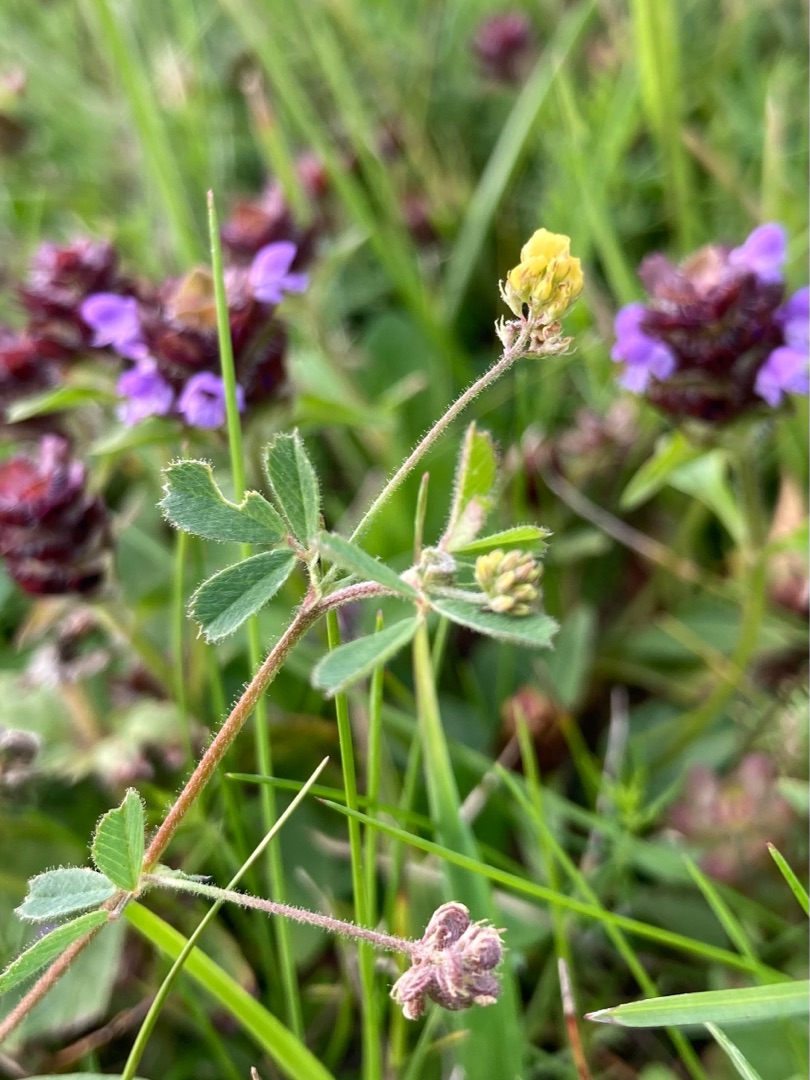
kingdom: Plantae
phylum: Tracheophyta
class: Magnoliopsida
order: Fabales
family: Fabaceae
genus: Medicago
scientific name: Medicago lupulina
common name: Humle-sneglebælg
